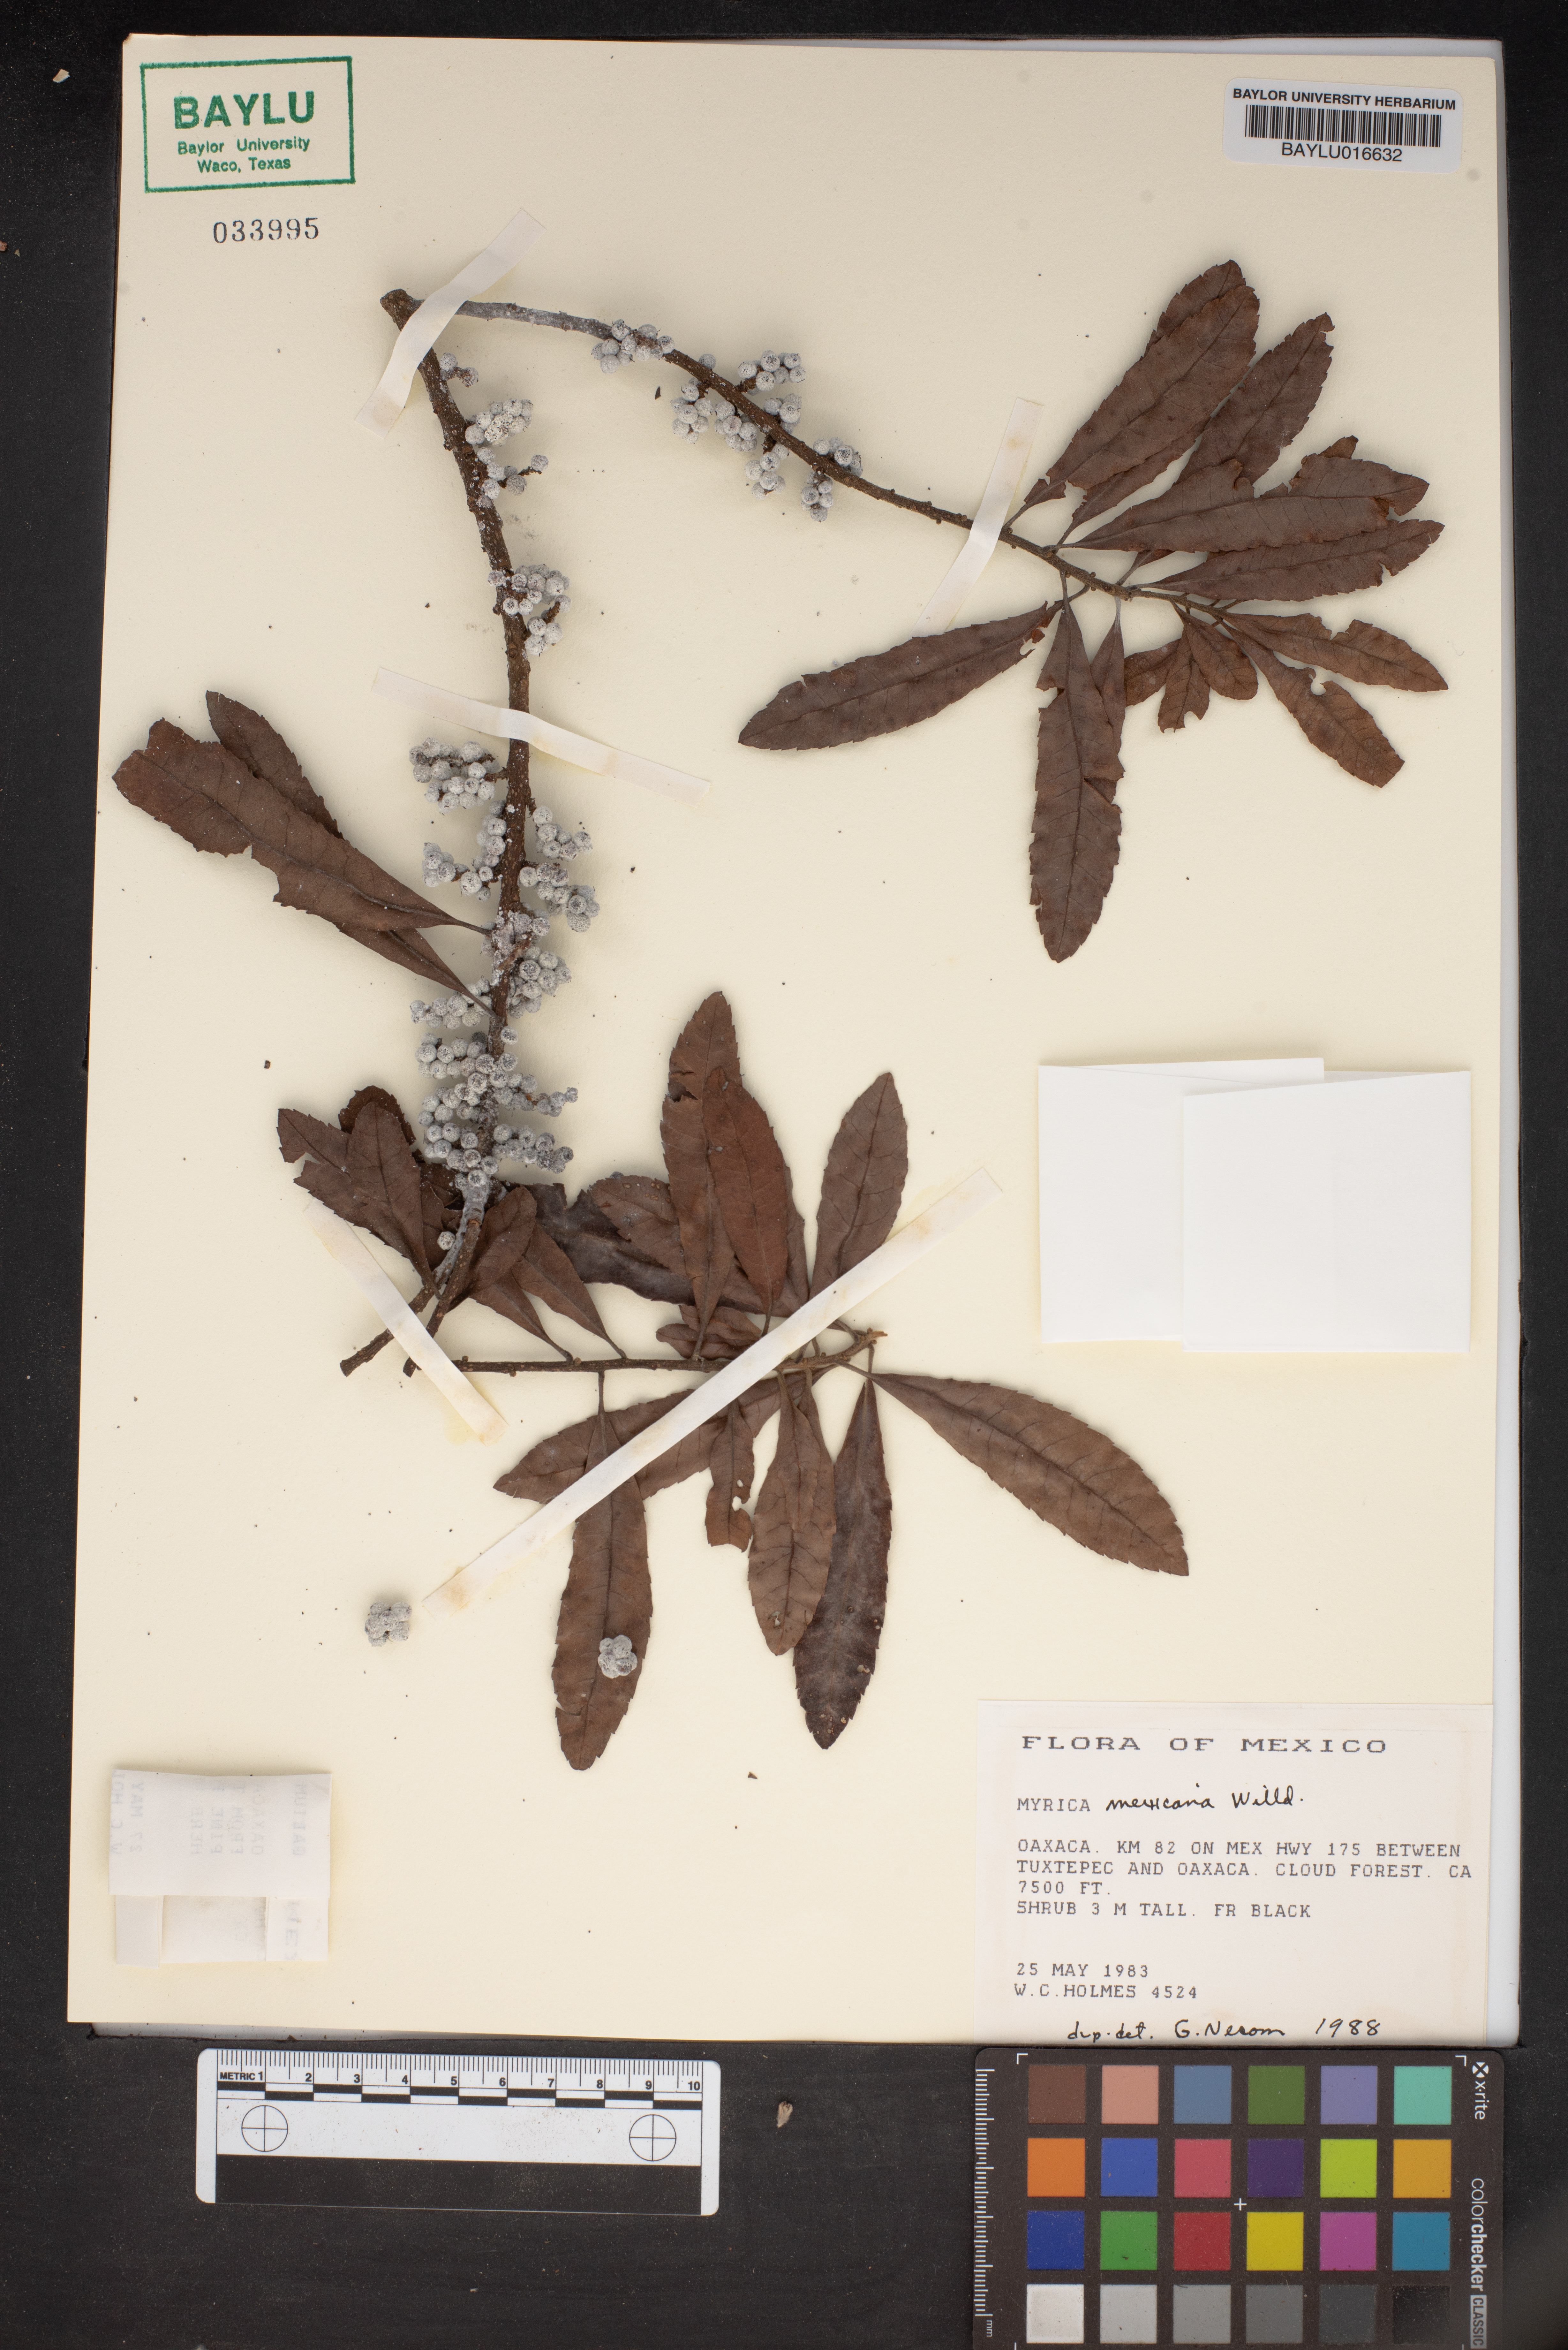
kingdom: Plantae
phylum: Tracheophyta
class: Magnoliopsida
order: Fagales
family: Myricaceae
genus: Morella
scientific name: Morella cerifera
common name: Wax myrtle
